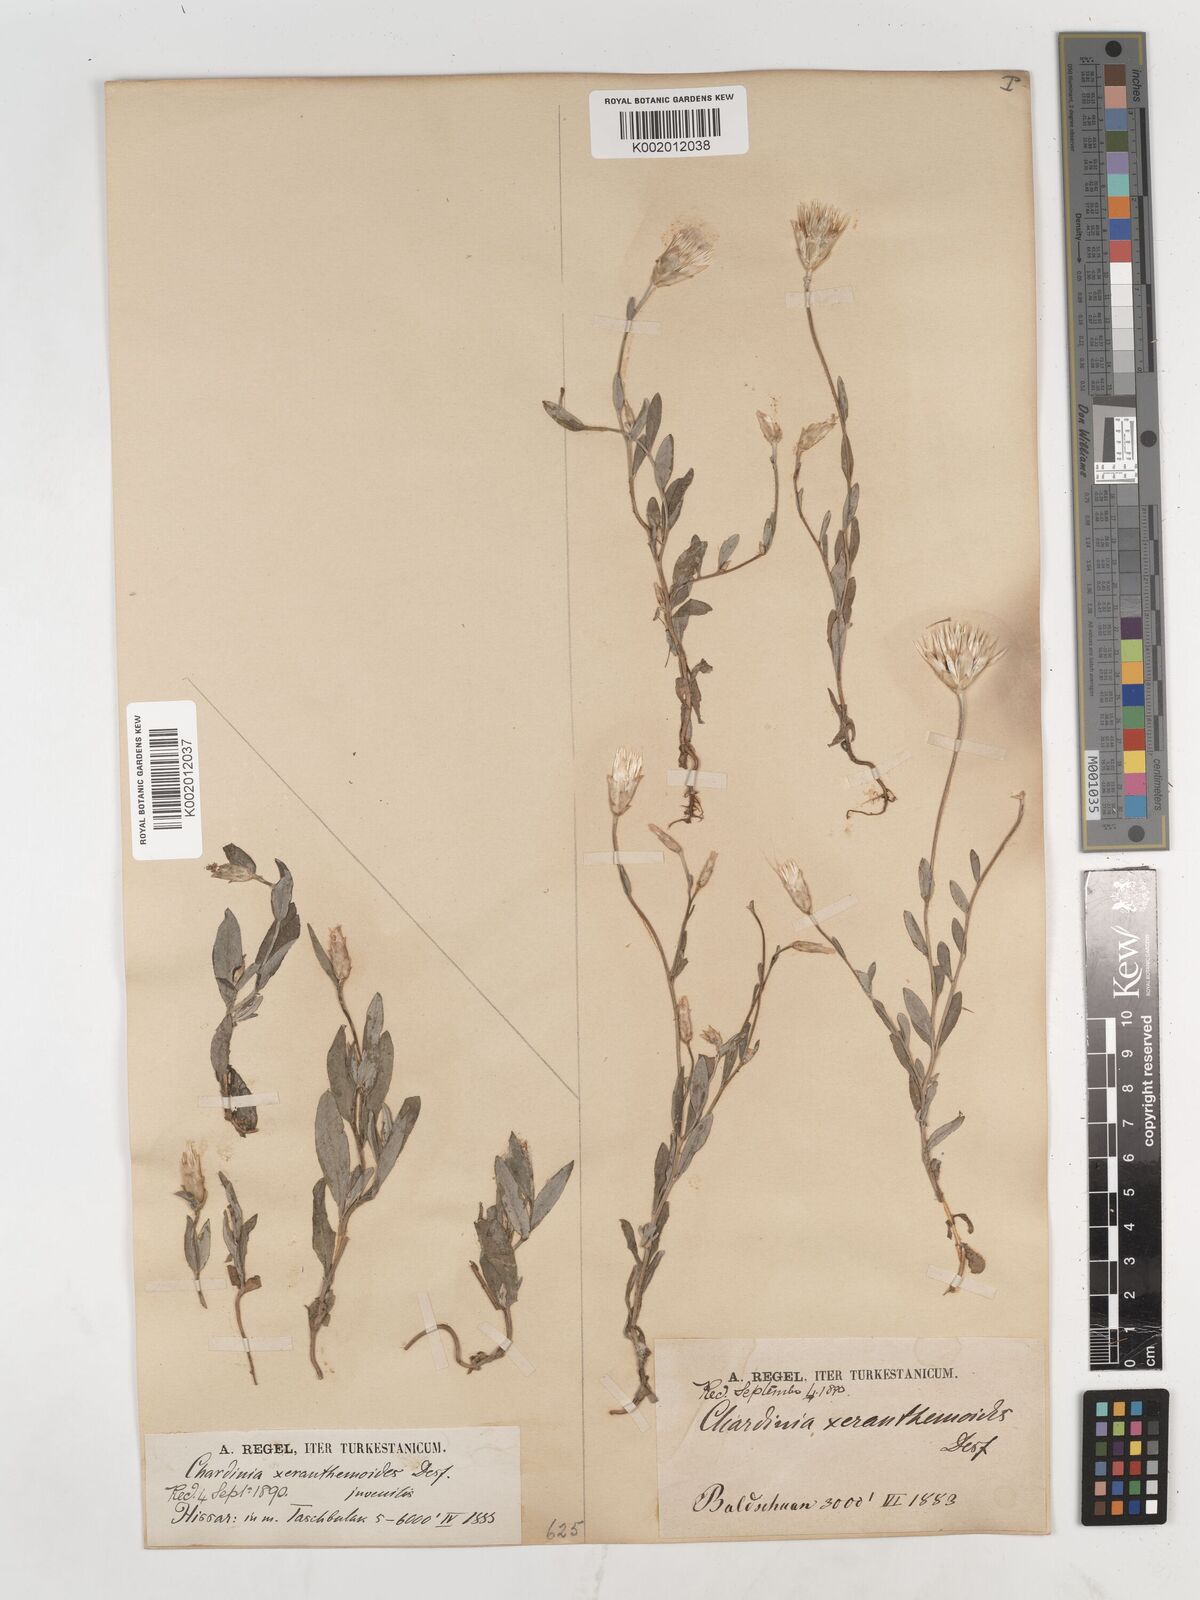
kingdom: Plantae
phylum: Tracheophyta
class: Magnoliopsida
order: Asterales
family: Asteraceae
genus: Chardinia
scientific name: Chardinia orientalis
